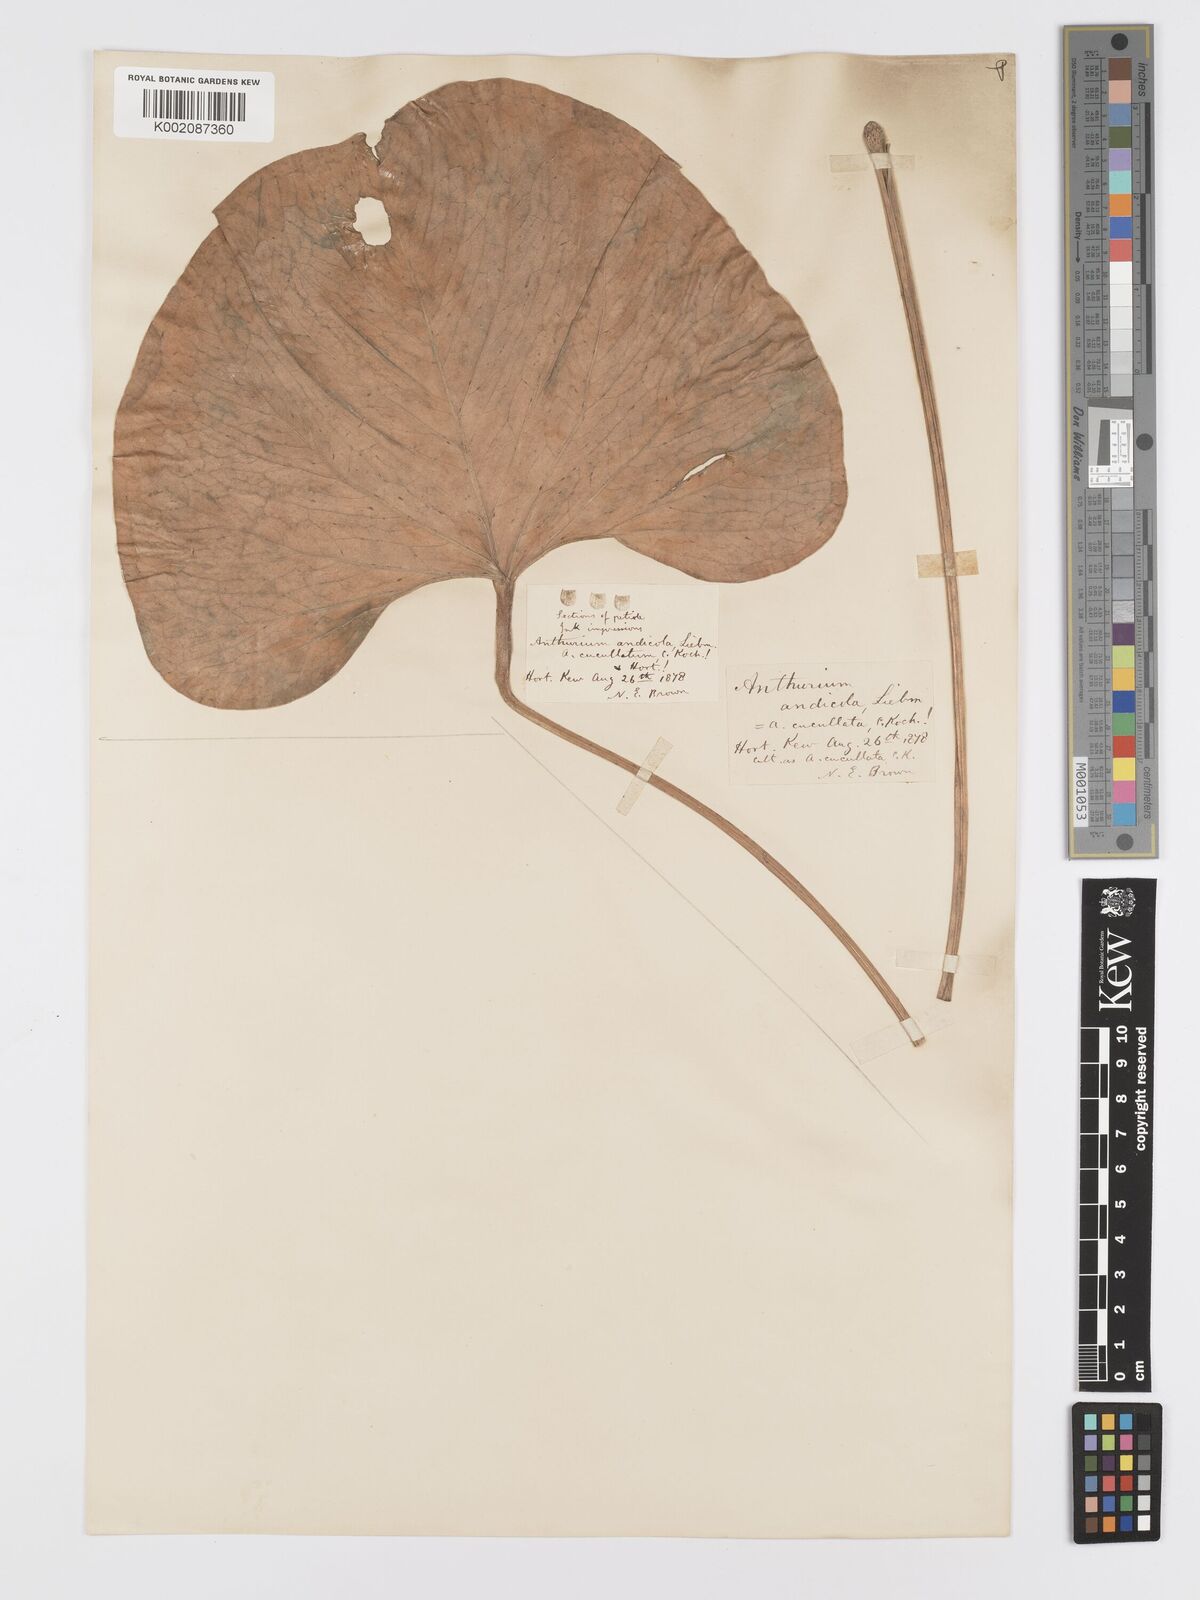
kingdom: Plantae
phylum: Tracheophyta
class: Liliopsida
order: Alismatales
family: Araceae
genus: Anthurium
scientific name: Anthurium andicola
